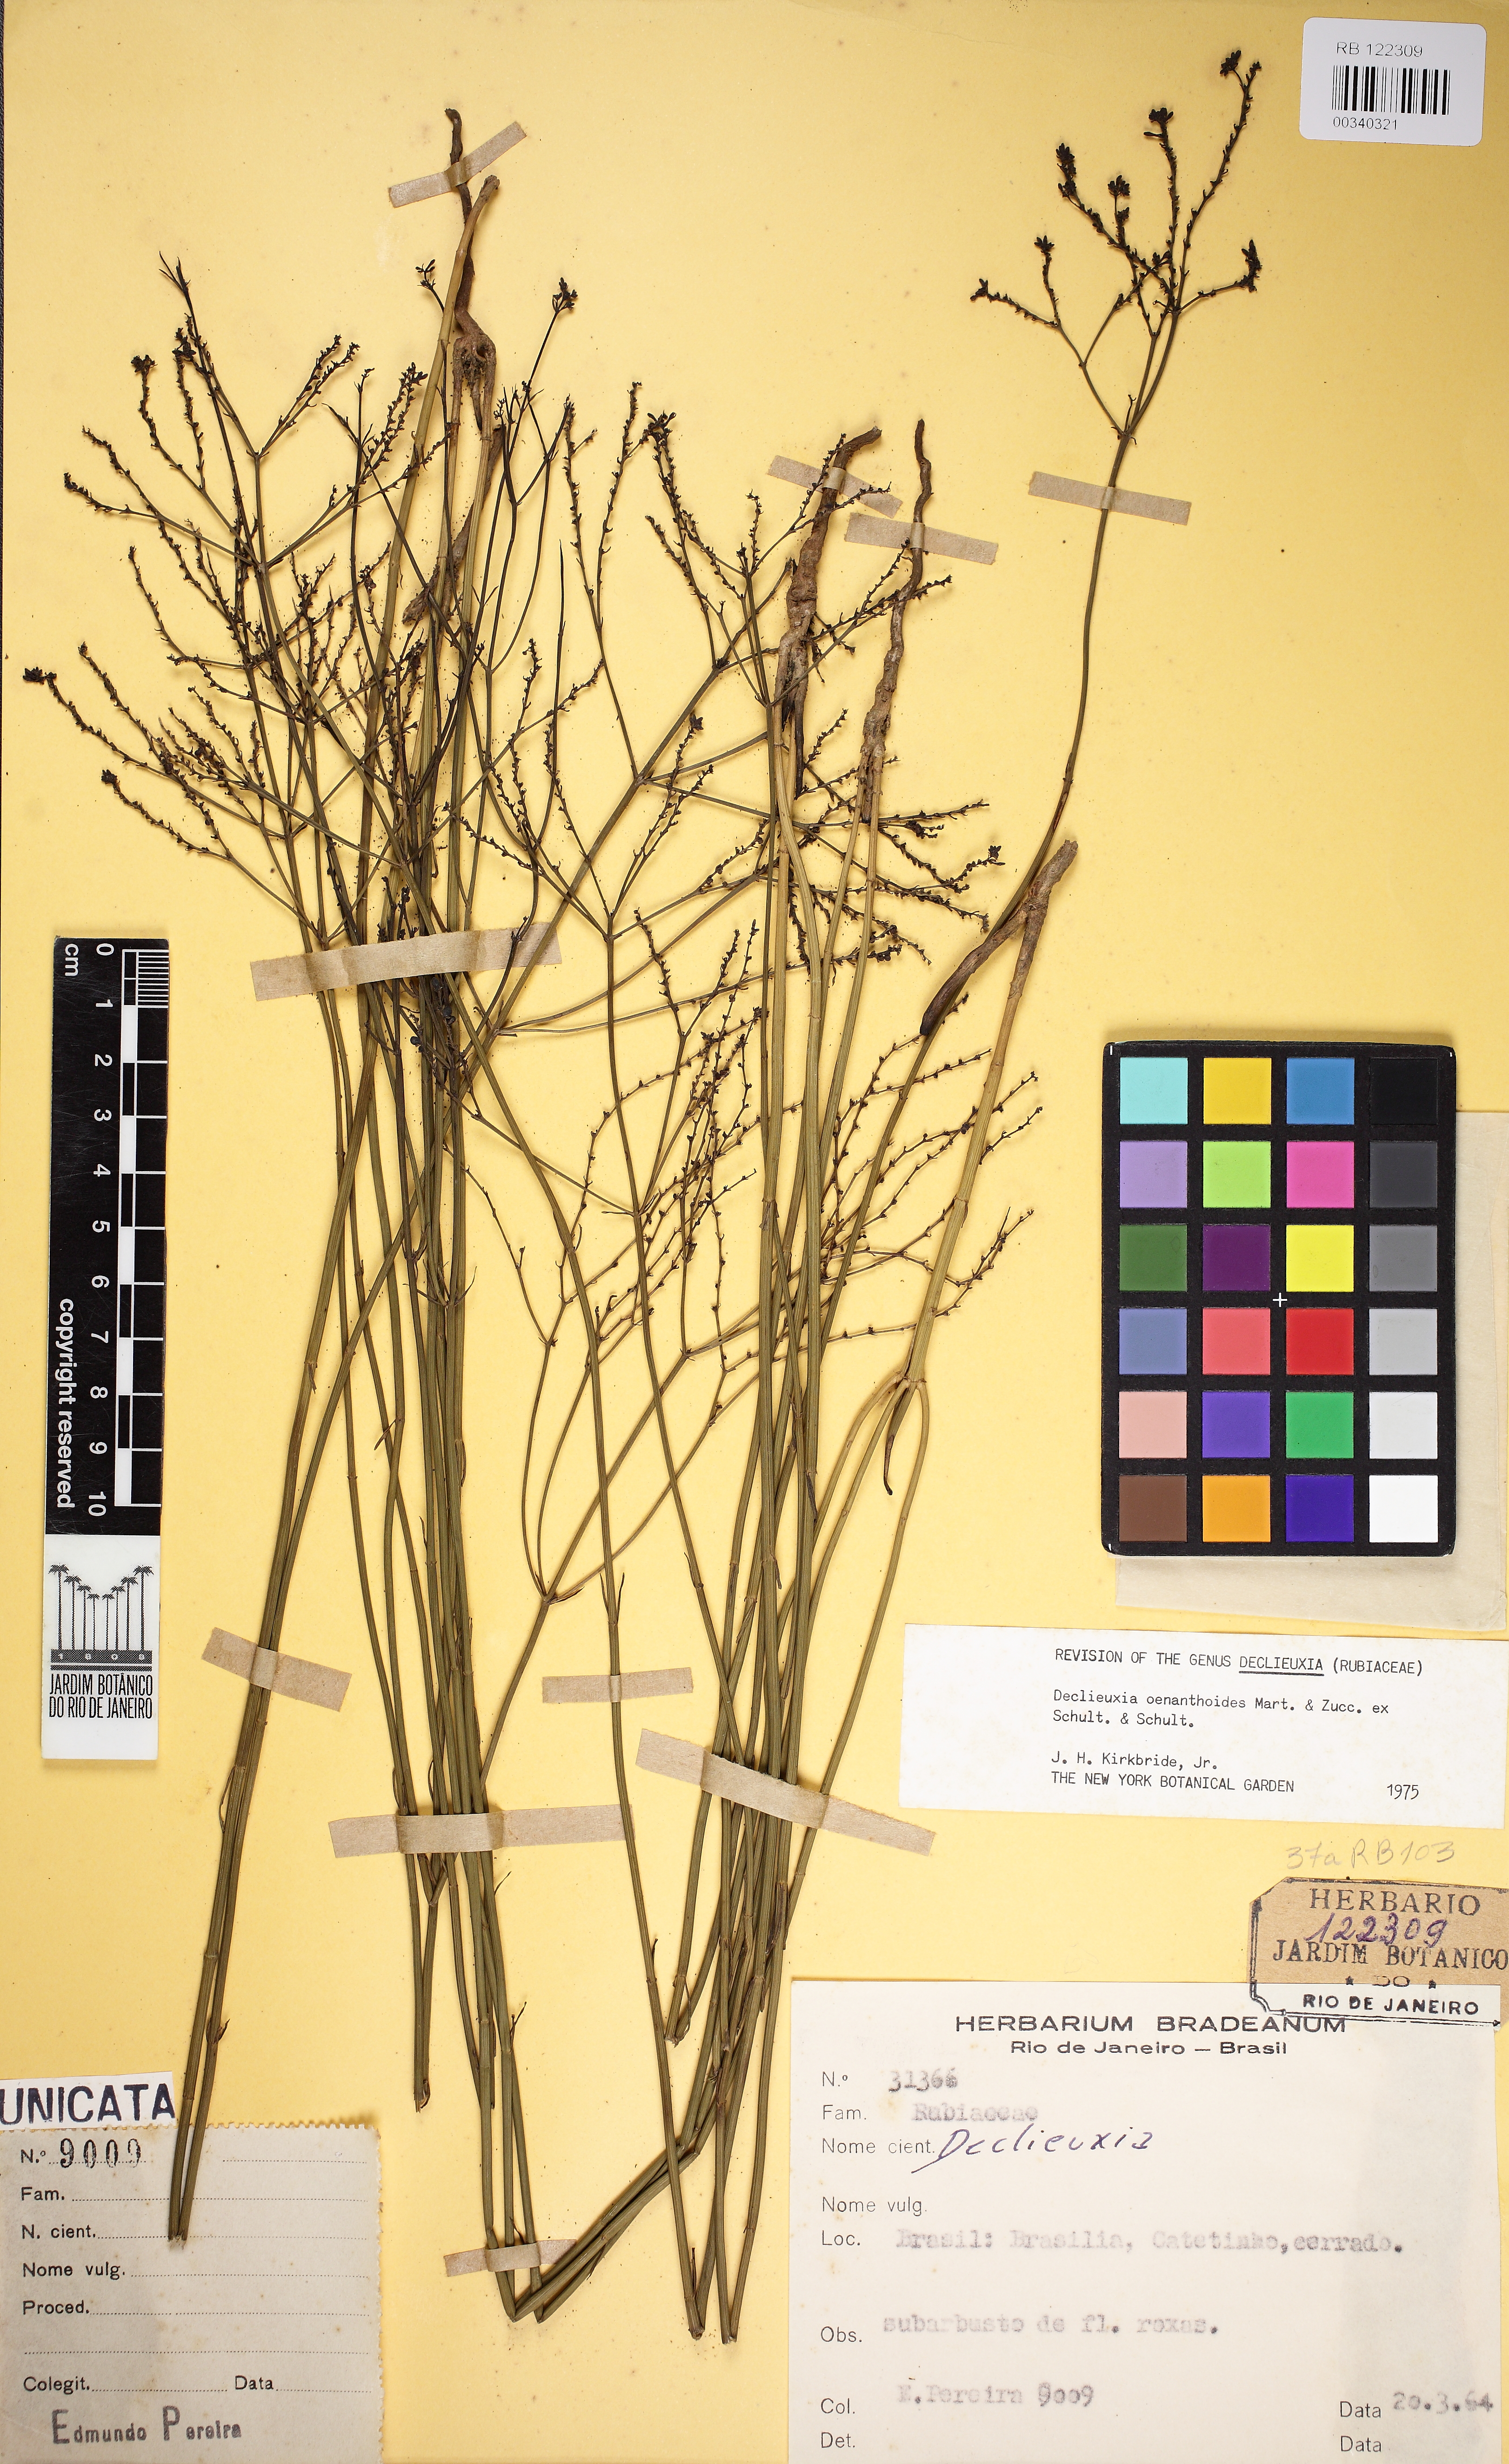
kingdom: Plantae
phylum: Tracheophyta
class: Magnoliopsida
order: Gentianales
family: Rubiaceae
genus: Declieuxia
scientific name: Declieuxia oenanthoides
